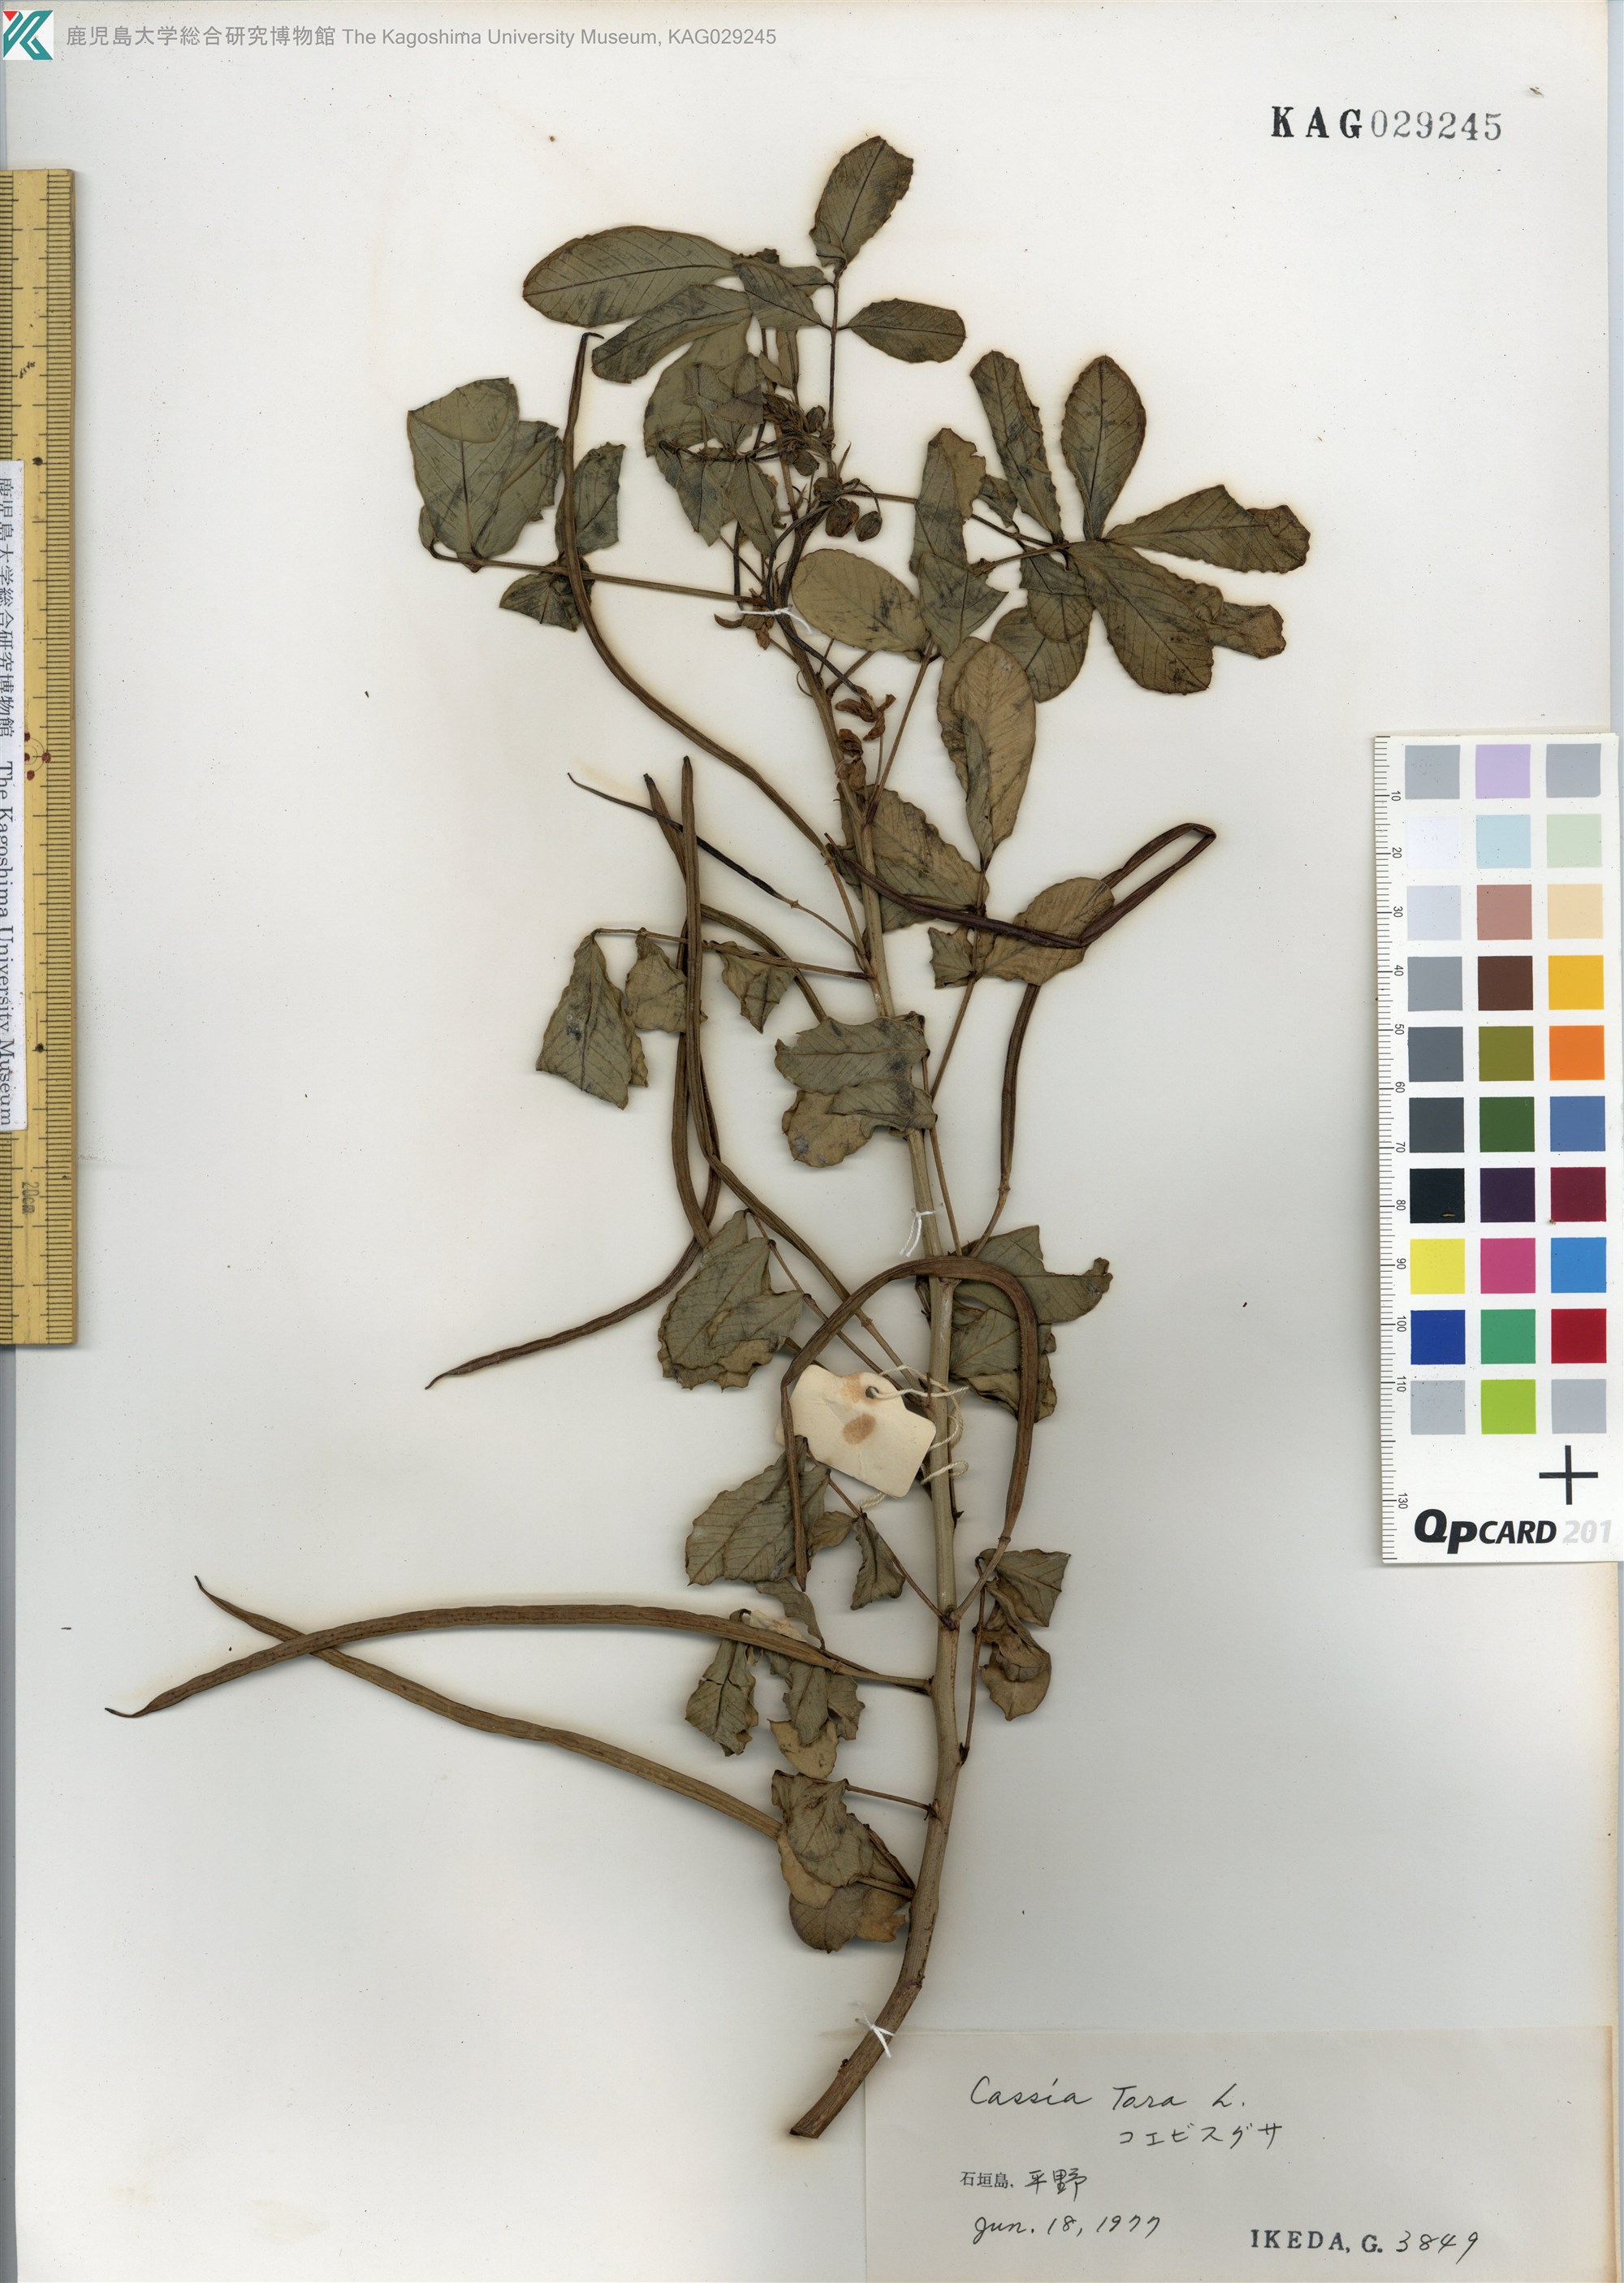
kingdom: Plantae
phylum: Tracheophyta
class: Magnoliopsida
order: Fabales
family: Fabaceae
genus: Senna
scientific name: Senna tora
